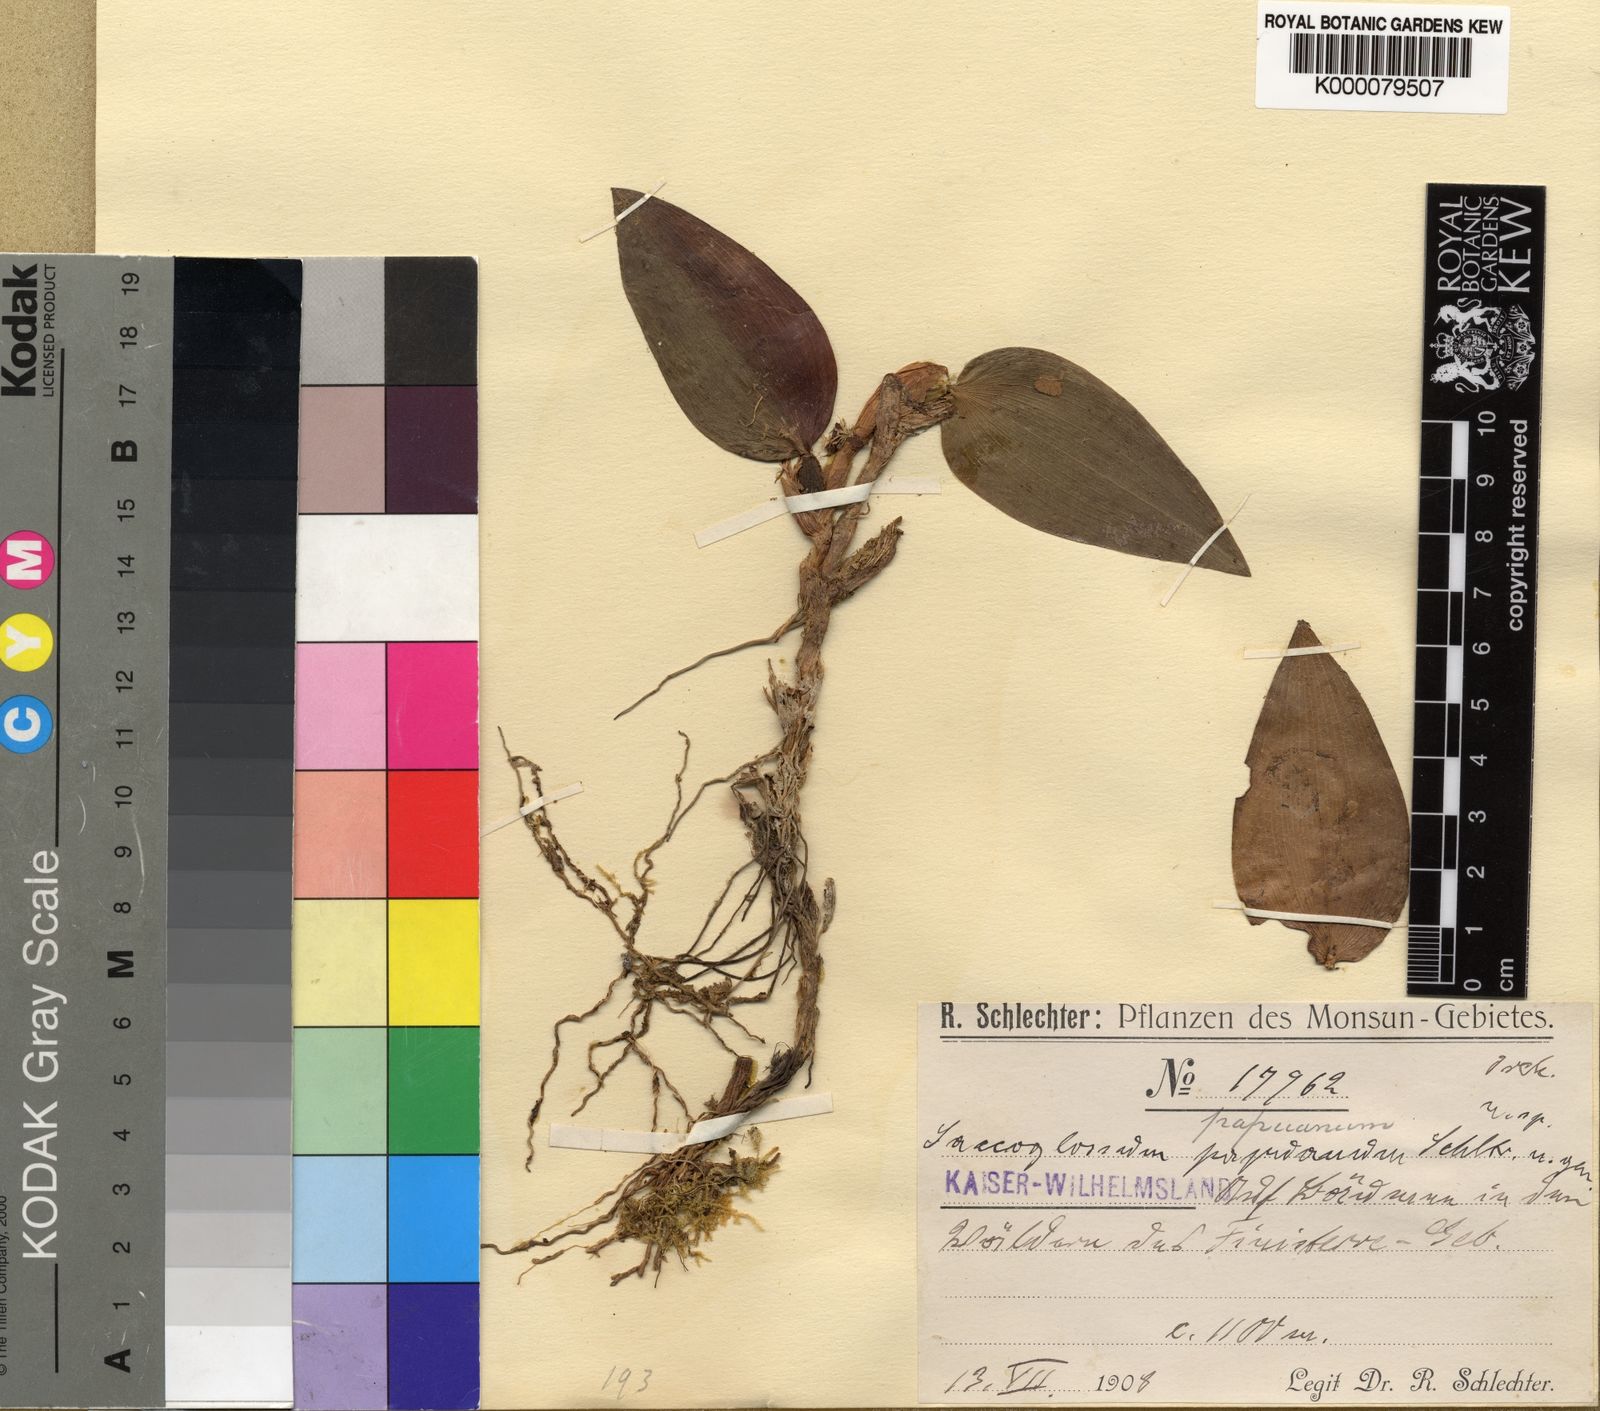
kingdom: Plantae
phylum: Tracheophyta
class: Liliopsida
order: Asparagales
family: Orchidaceae
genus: Bulbophyllum
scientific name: Bulbophyllum saccoglossum
